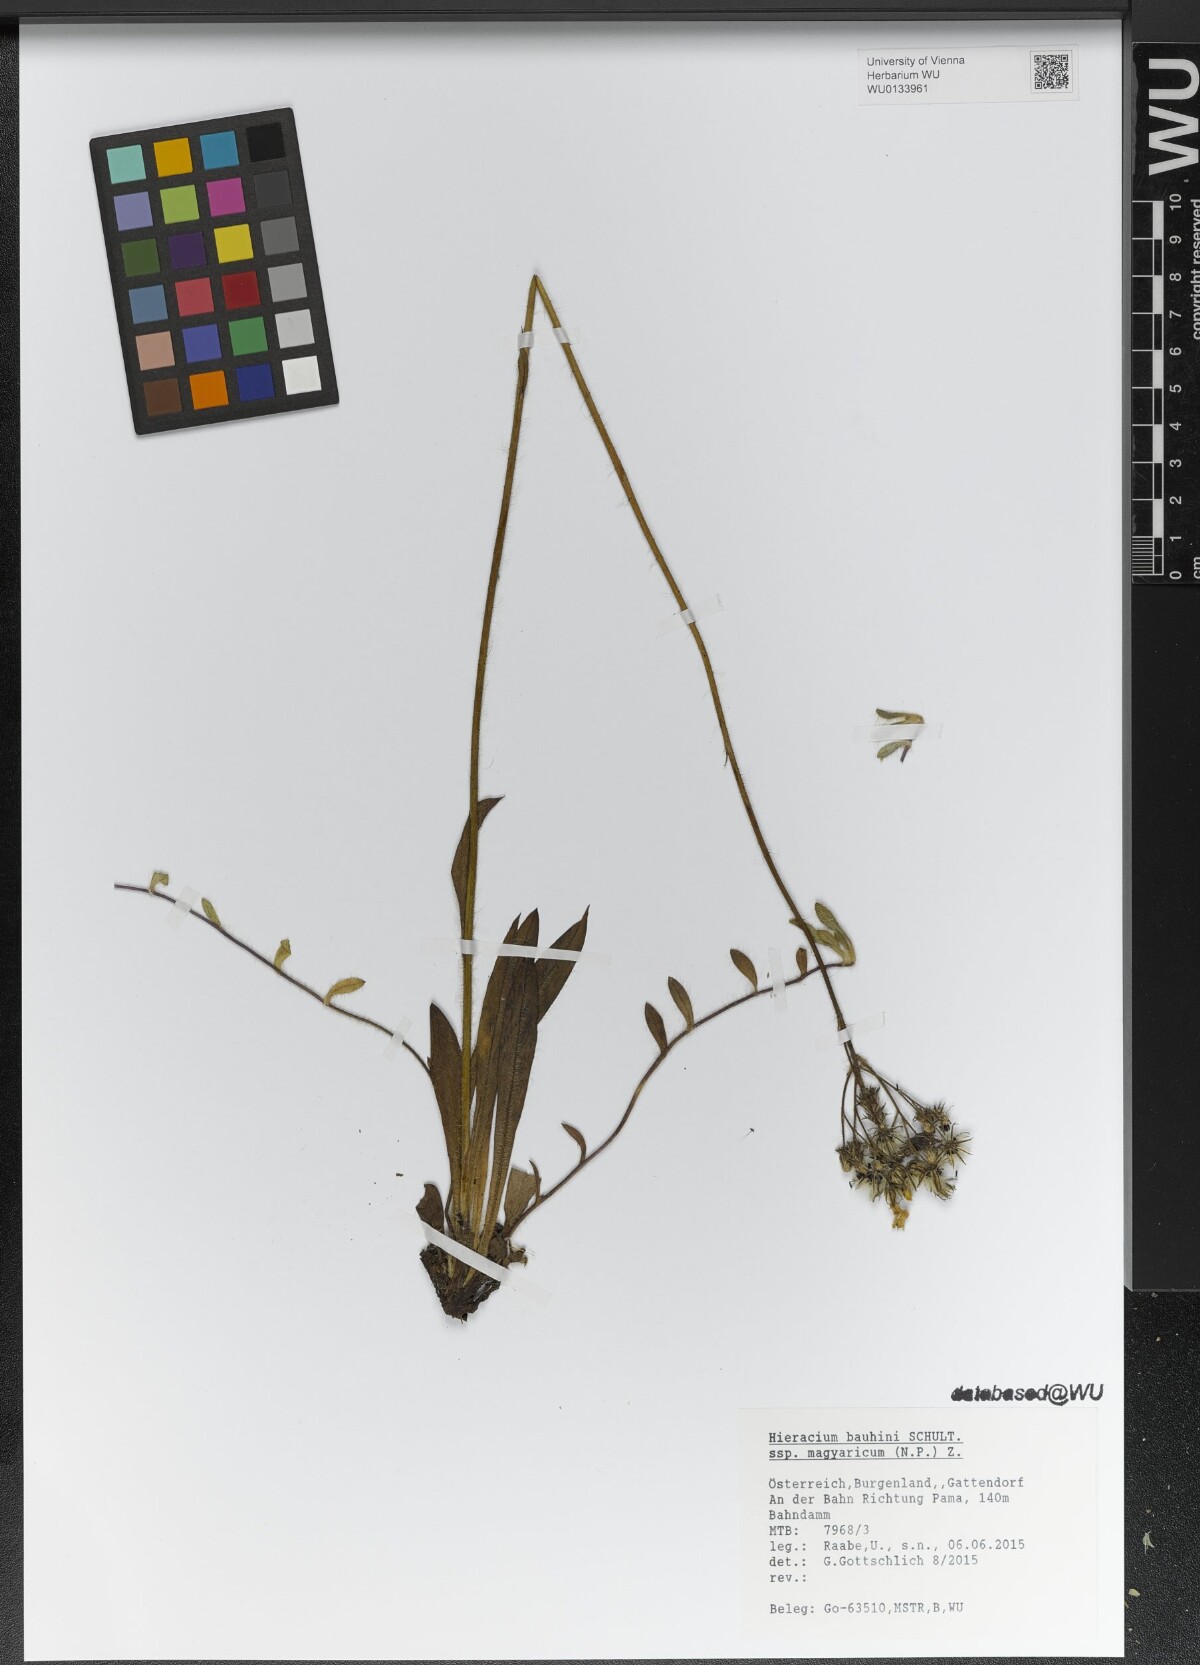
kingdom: Plantae
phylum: Tracheophyta
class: Magnoliopsida
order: Asterales
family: Asteraceae
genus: Pilosella
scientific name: Pilosella bauhini
